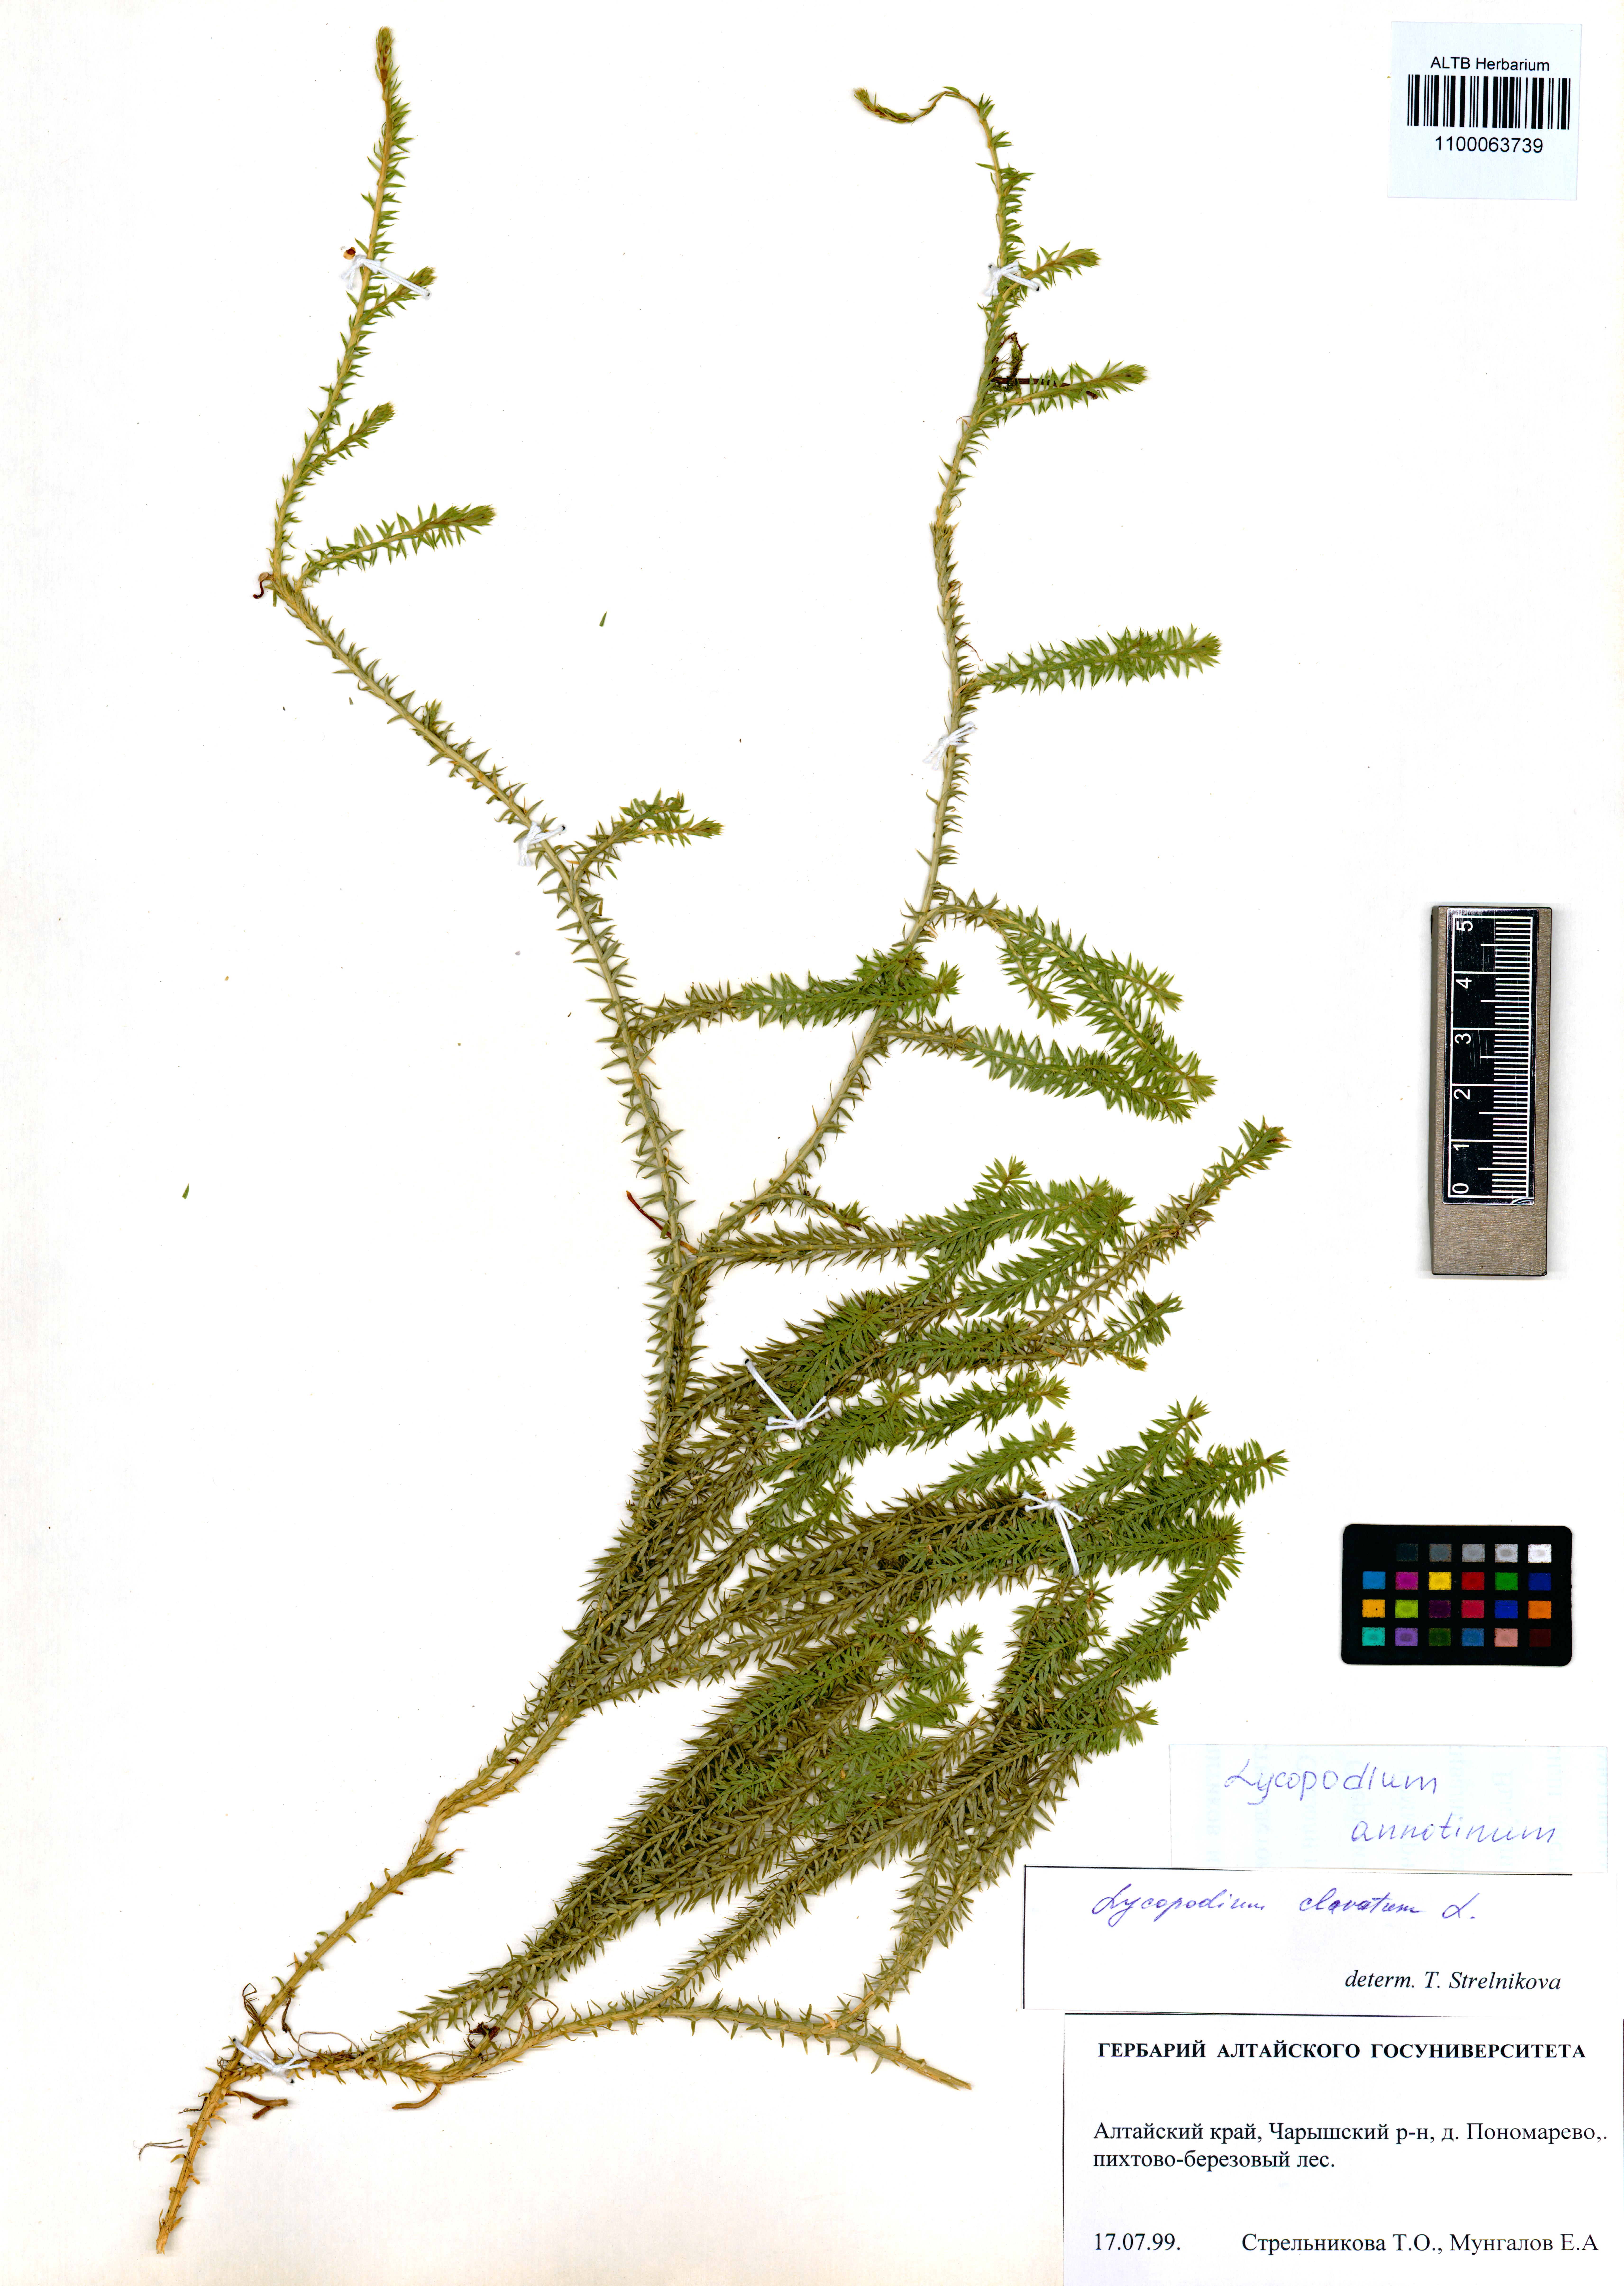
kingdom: Plantae
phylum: Tracheophyta
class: Lycopodiopsida
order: Lycopodiales
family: Lycopodiaceae
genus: Spinulum
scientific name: Spinulum annotinum
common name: Interrupted club-moss
